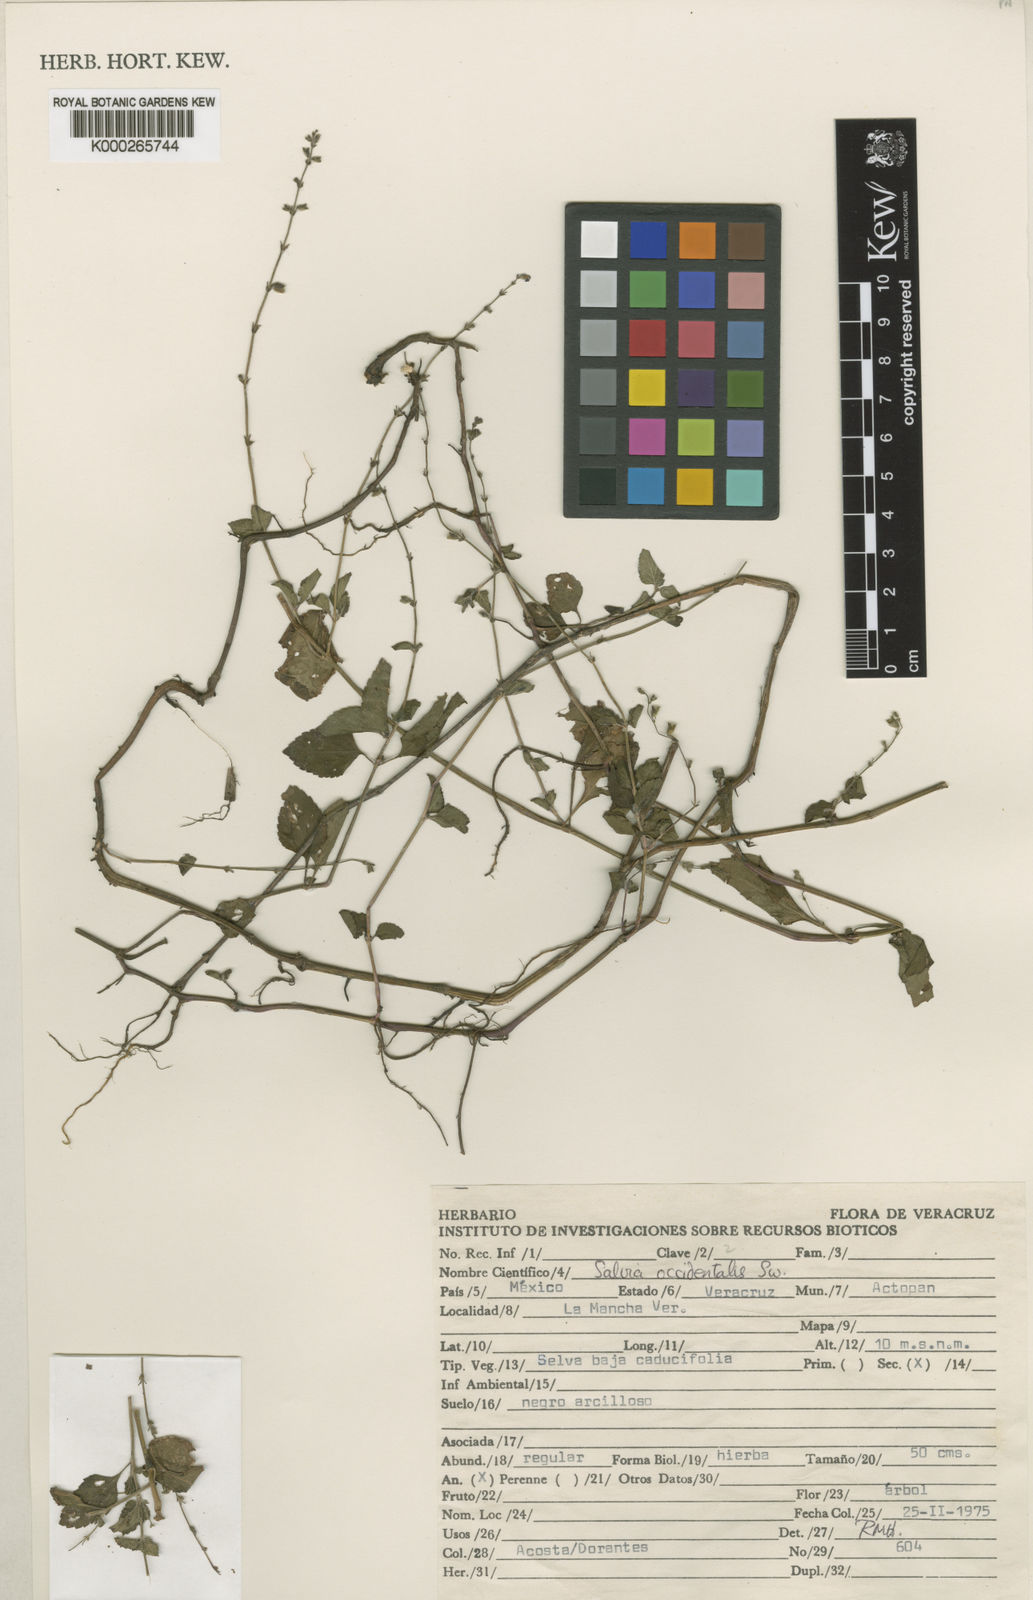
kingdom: Plantae
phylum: Tracheophyta
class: Magnoliopsida
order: Lamiales
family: Lamiaceae
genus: Salvia
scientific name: Salvia occidentalis
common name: West indian sage
